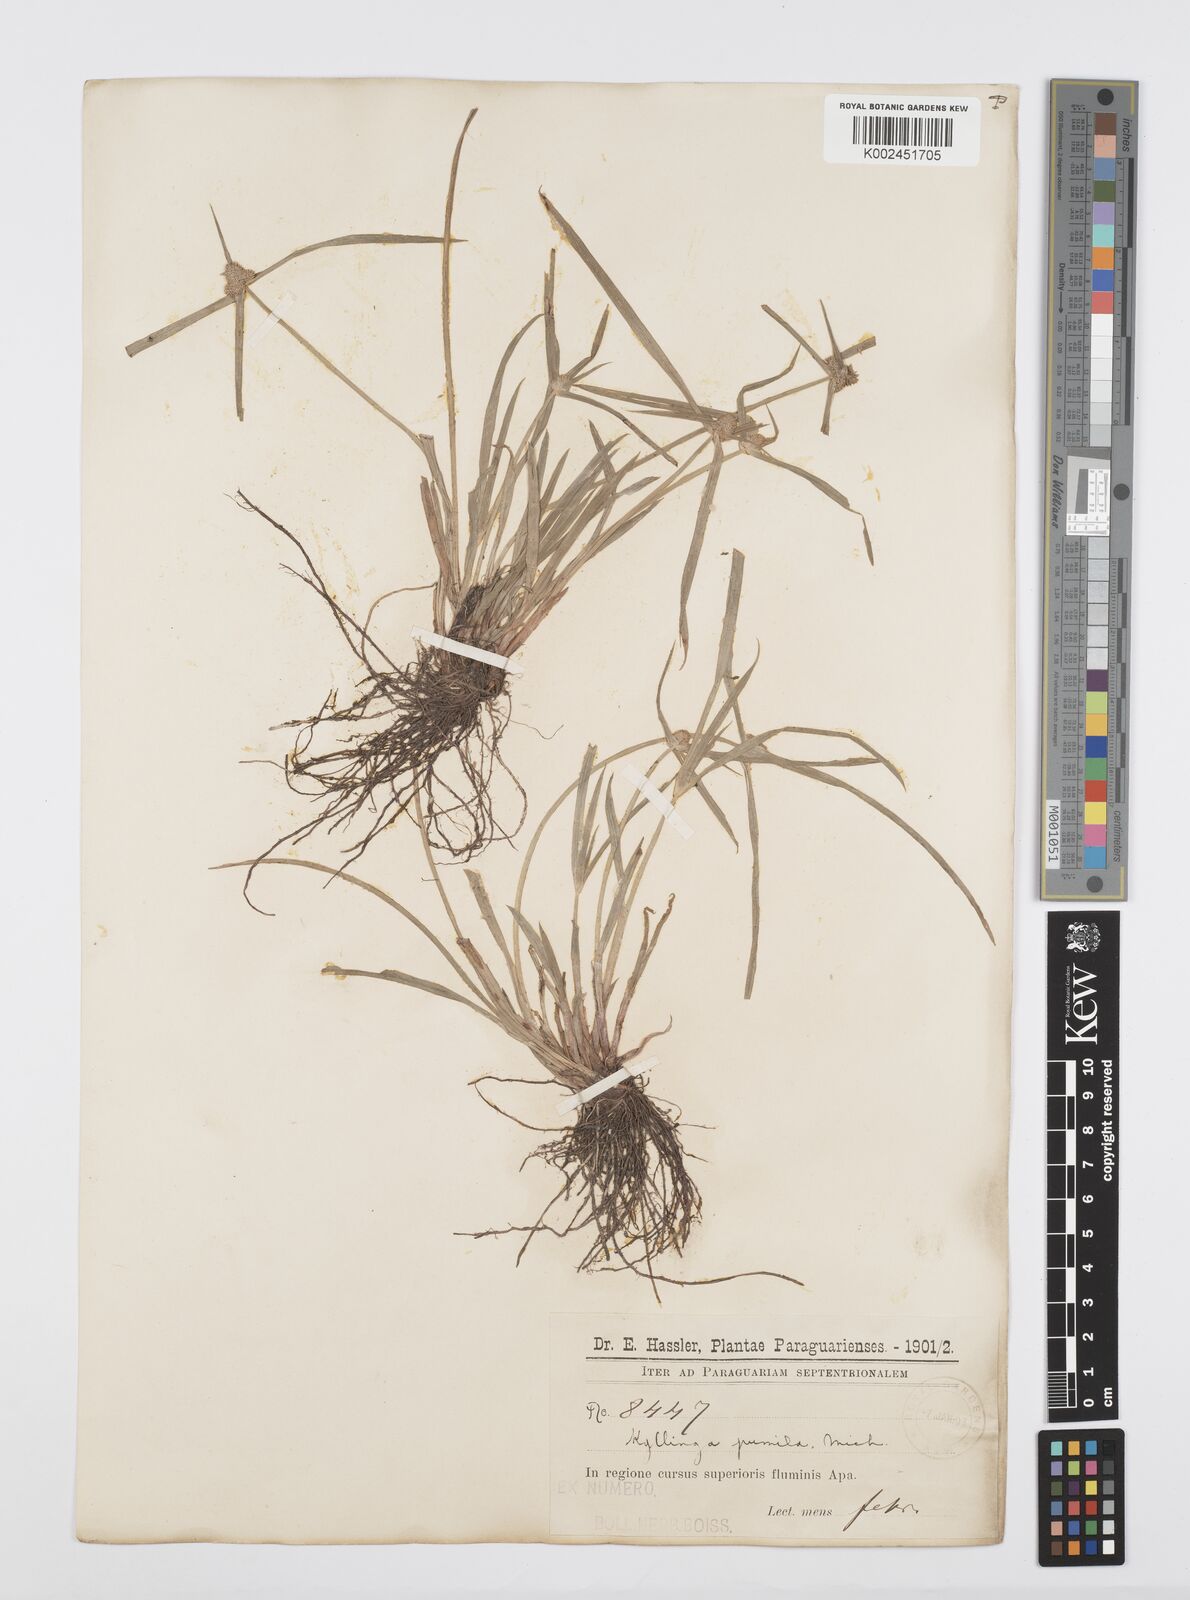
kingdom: Plantae
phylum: Tracheophyta
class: Liliopsida
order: Poales
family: Cyperaceae
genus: Cyperus
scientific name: Cyperus
